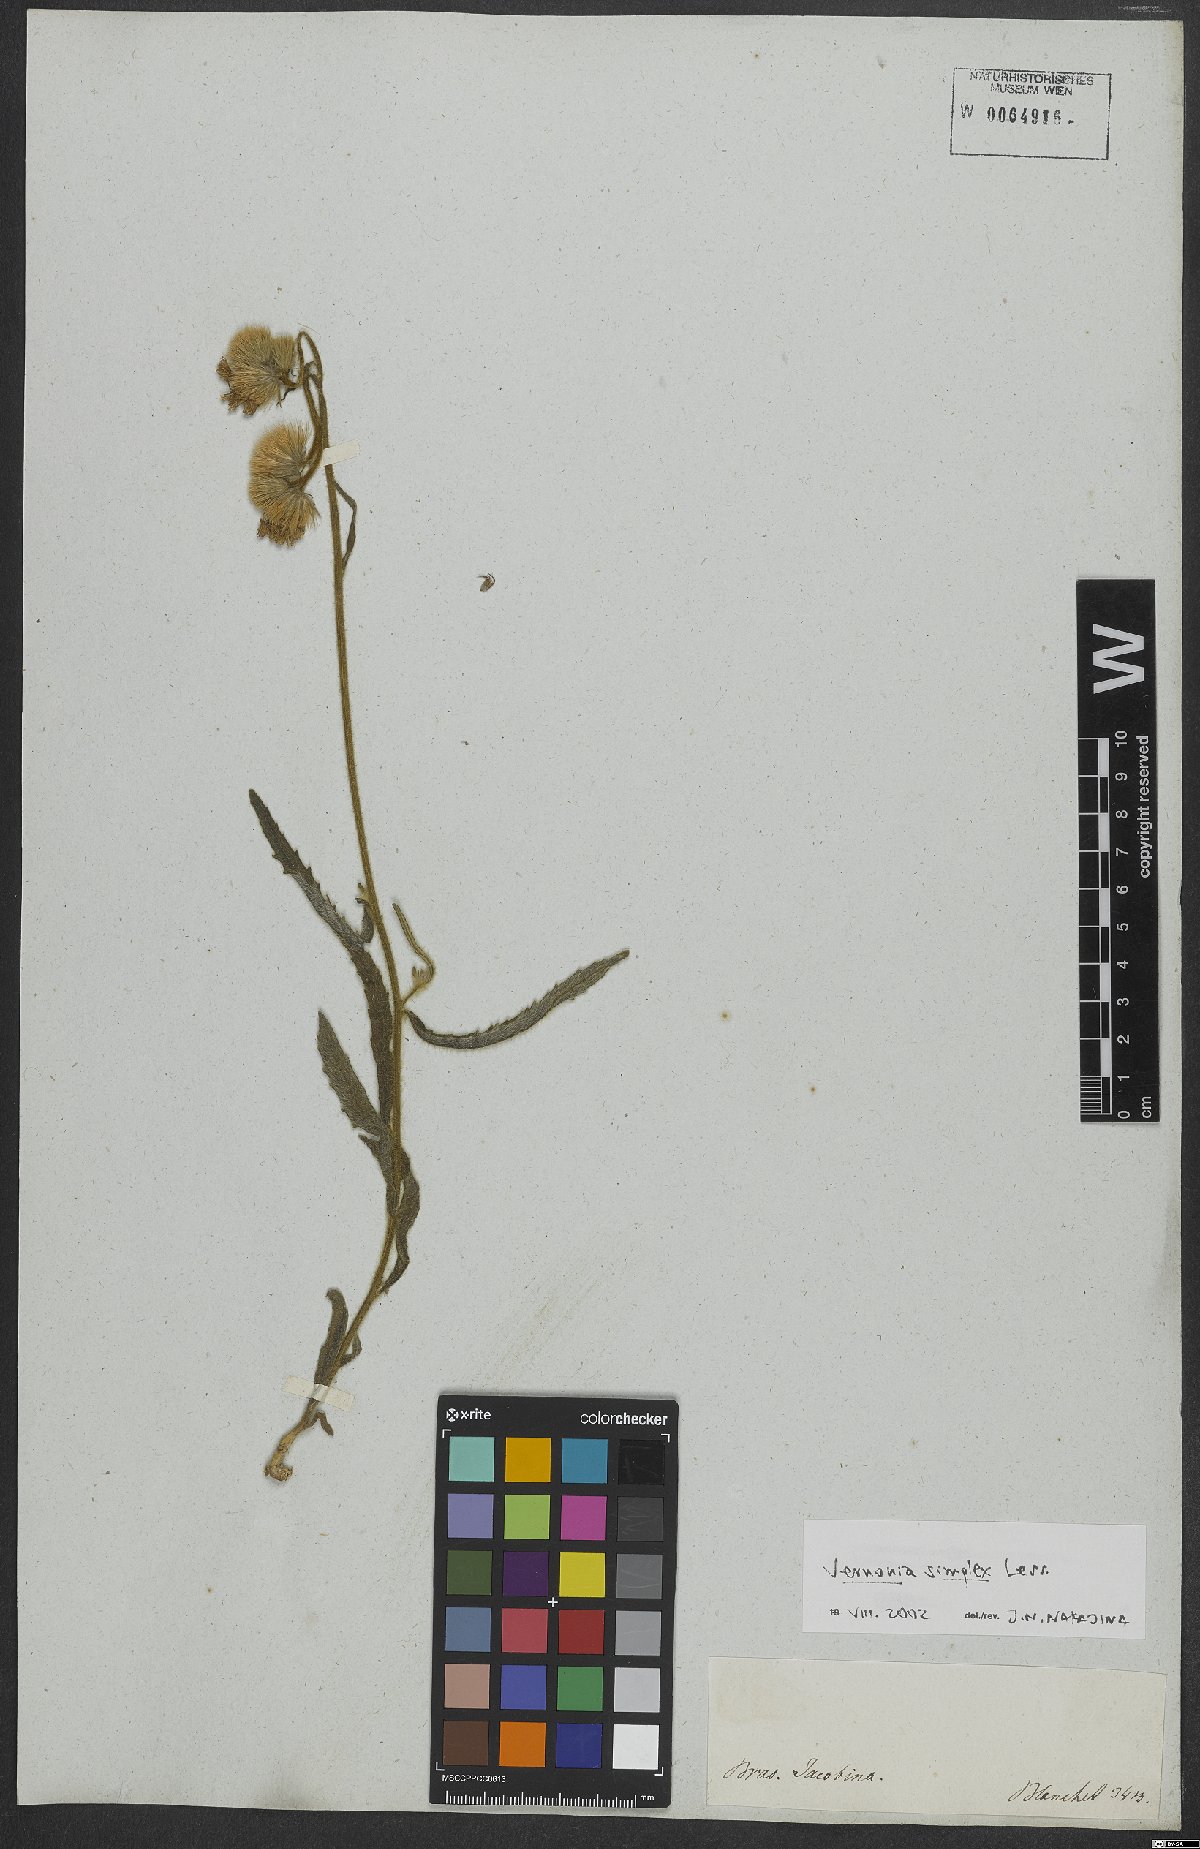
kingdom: Plantae
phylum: Tracheophyta
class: Magnoliopsida
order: Asterales
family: Asteraceae
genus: Chrysolaena
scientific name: Chrysolaena simplex
